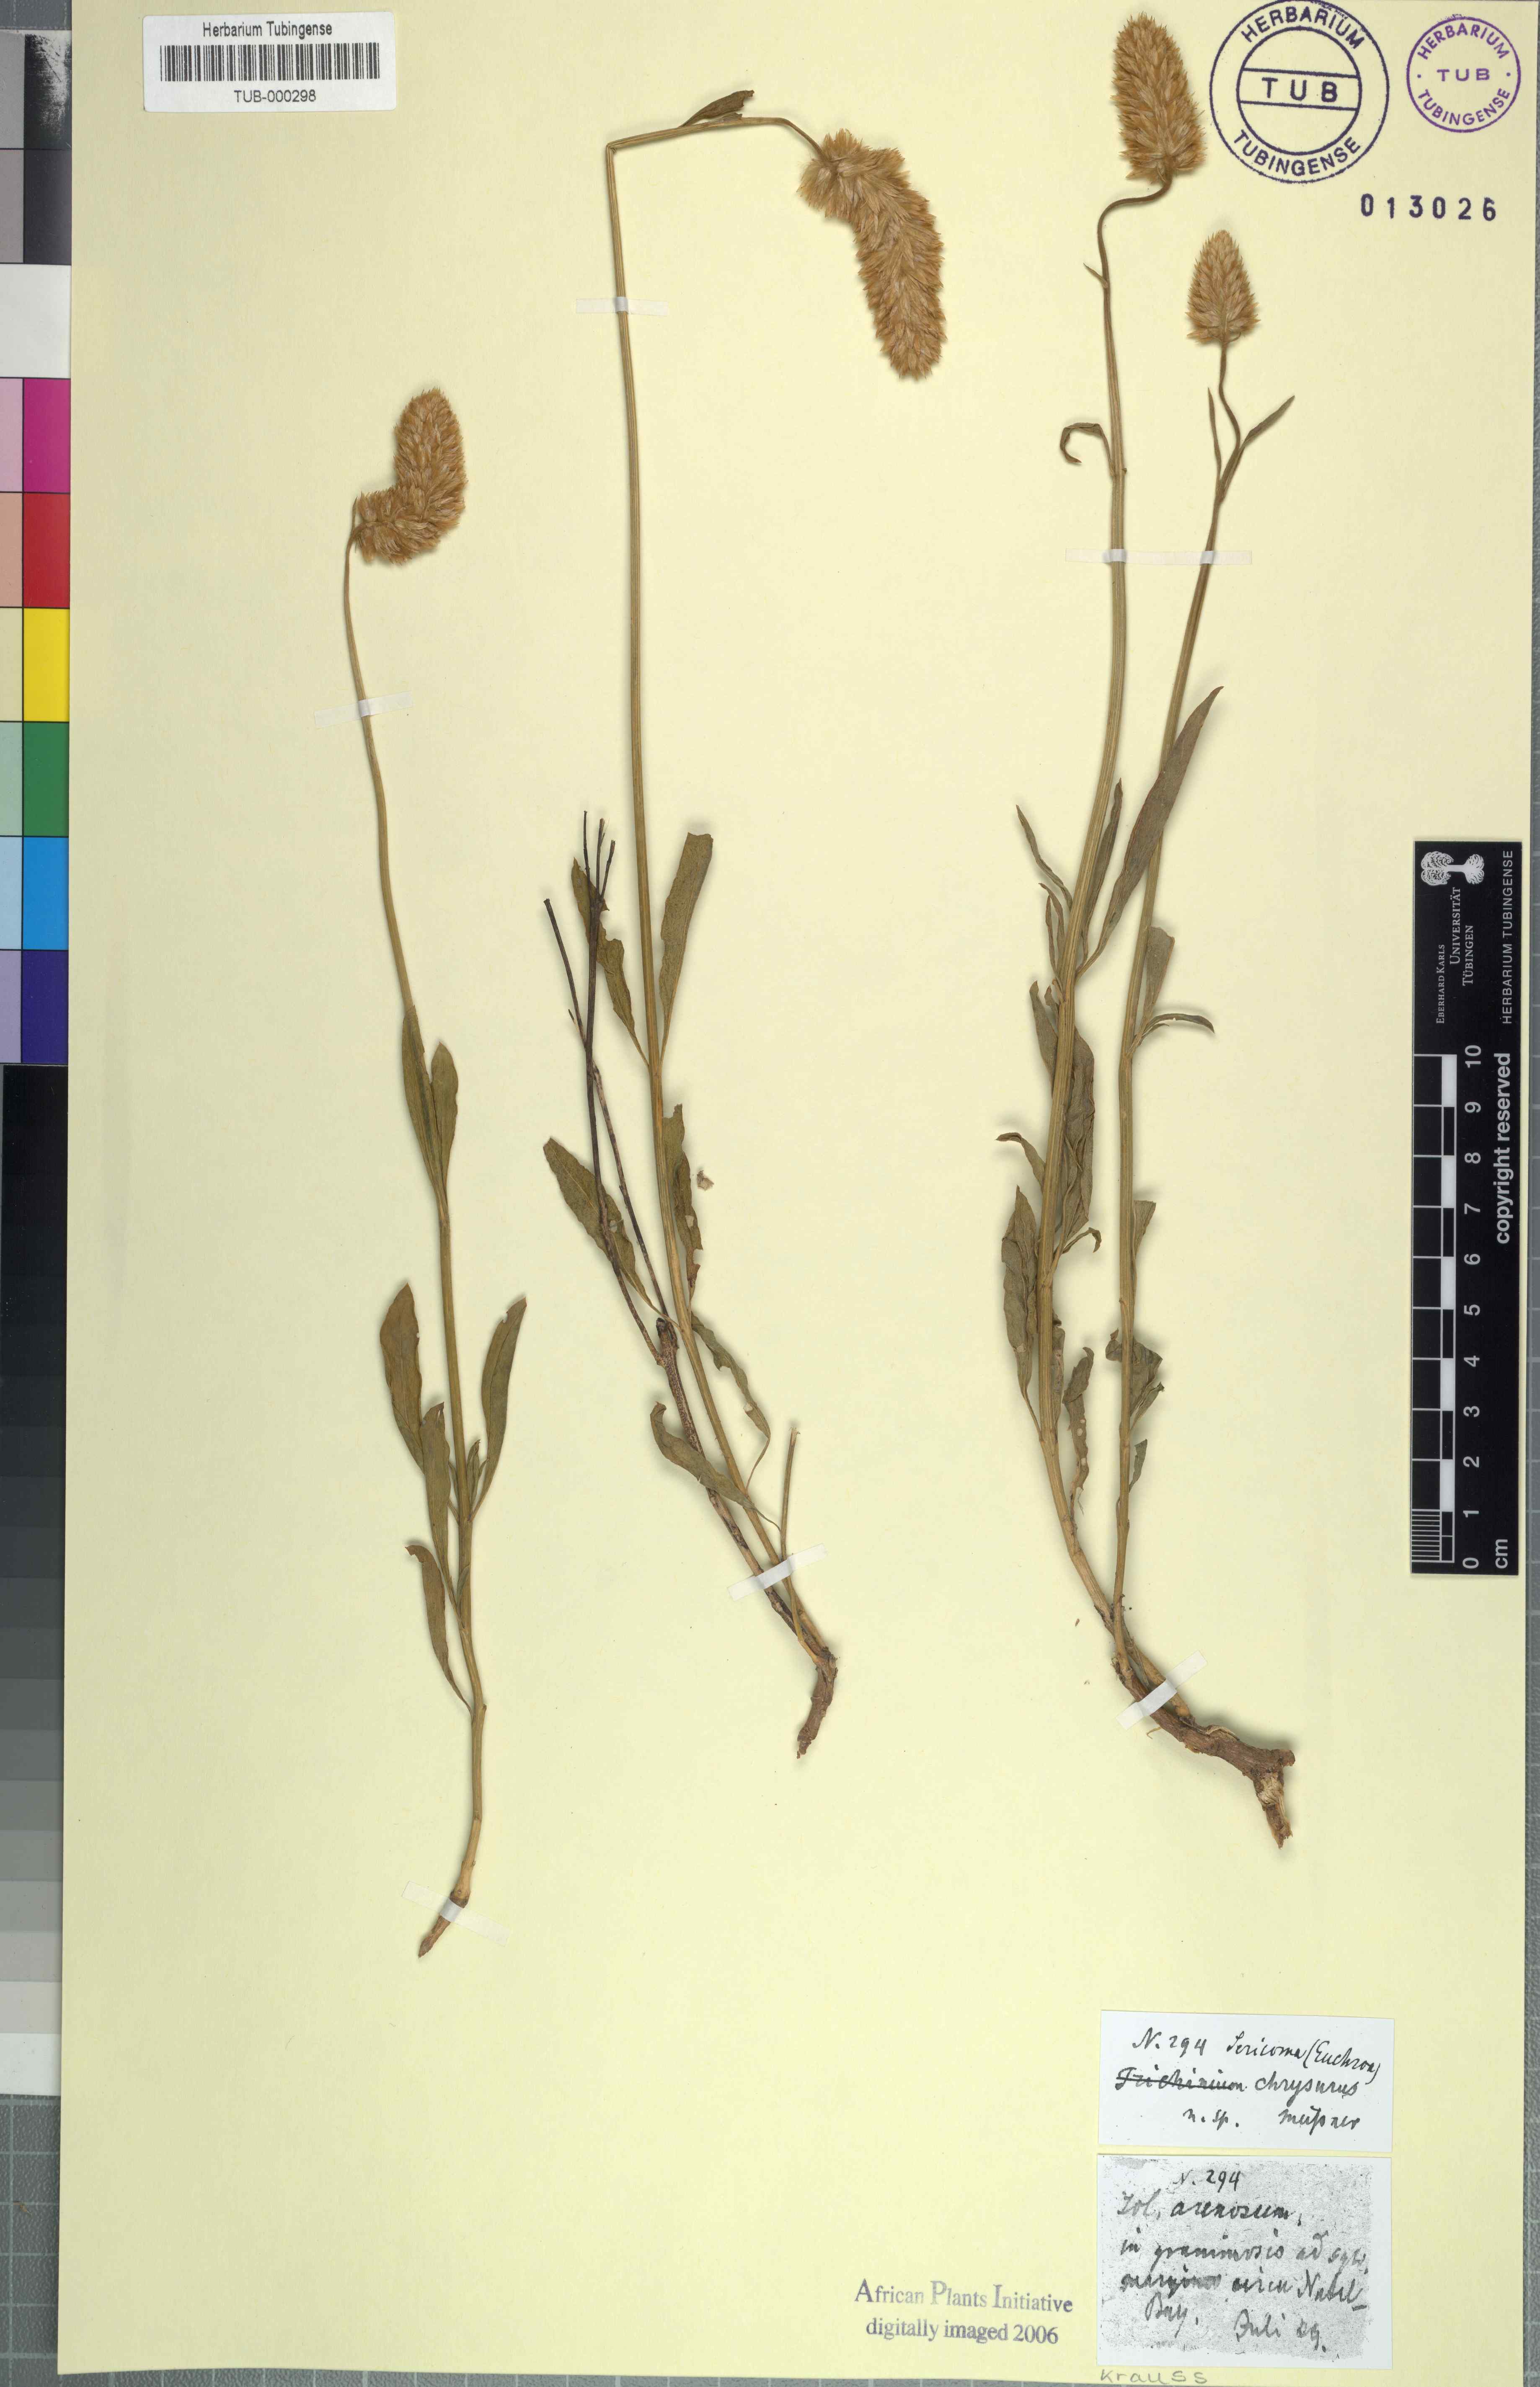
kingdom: Plantae
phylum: Tracheophyta
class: Magnoliopsida
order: Caryophyllales
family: Amaranthaceae
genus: Cyphocarpa
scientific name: Cyphocarpa trichinoides
